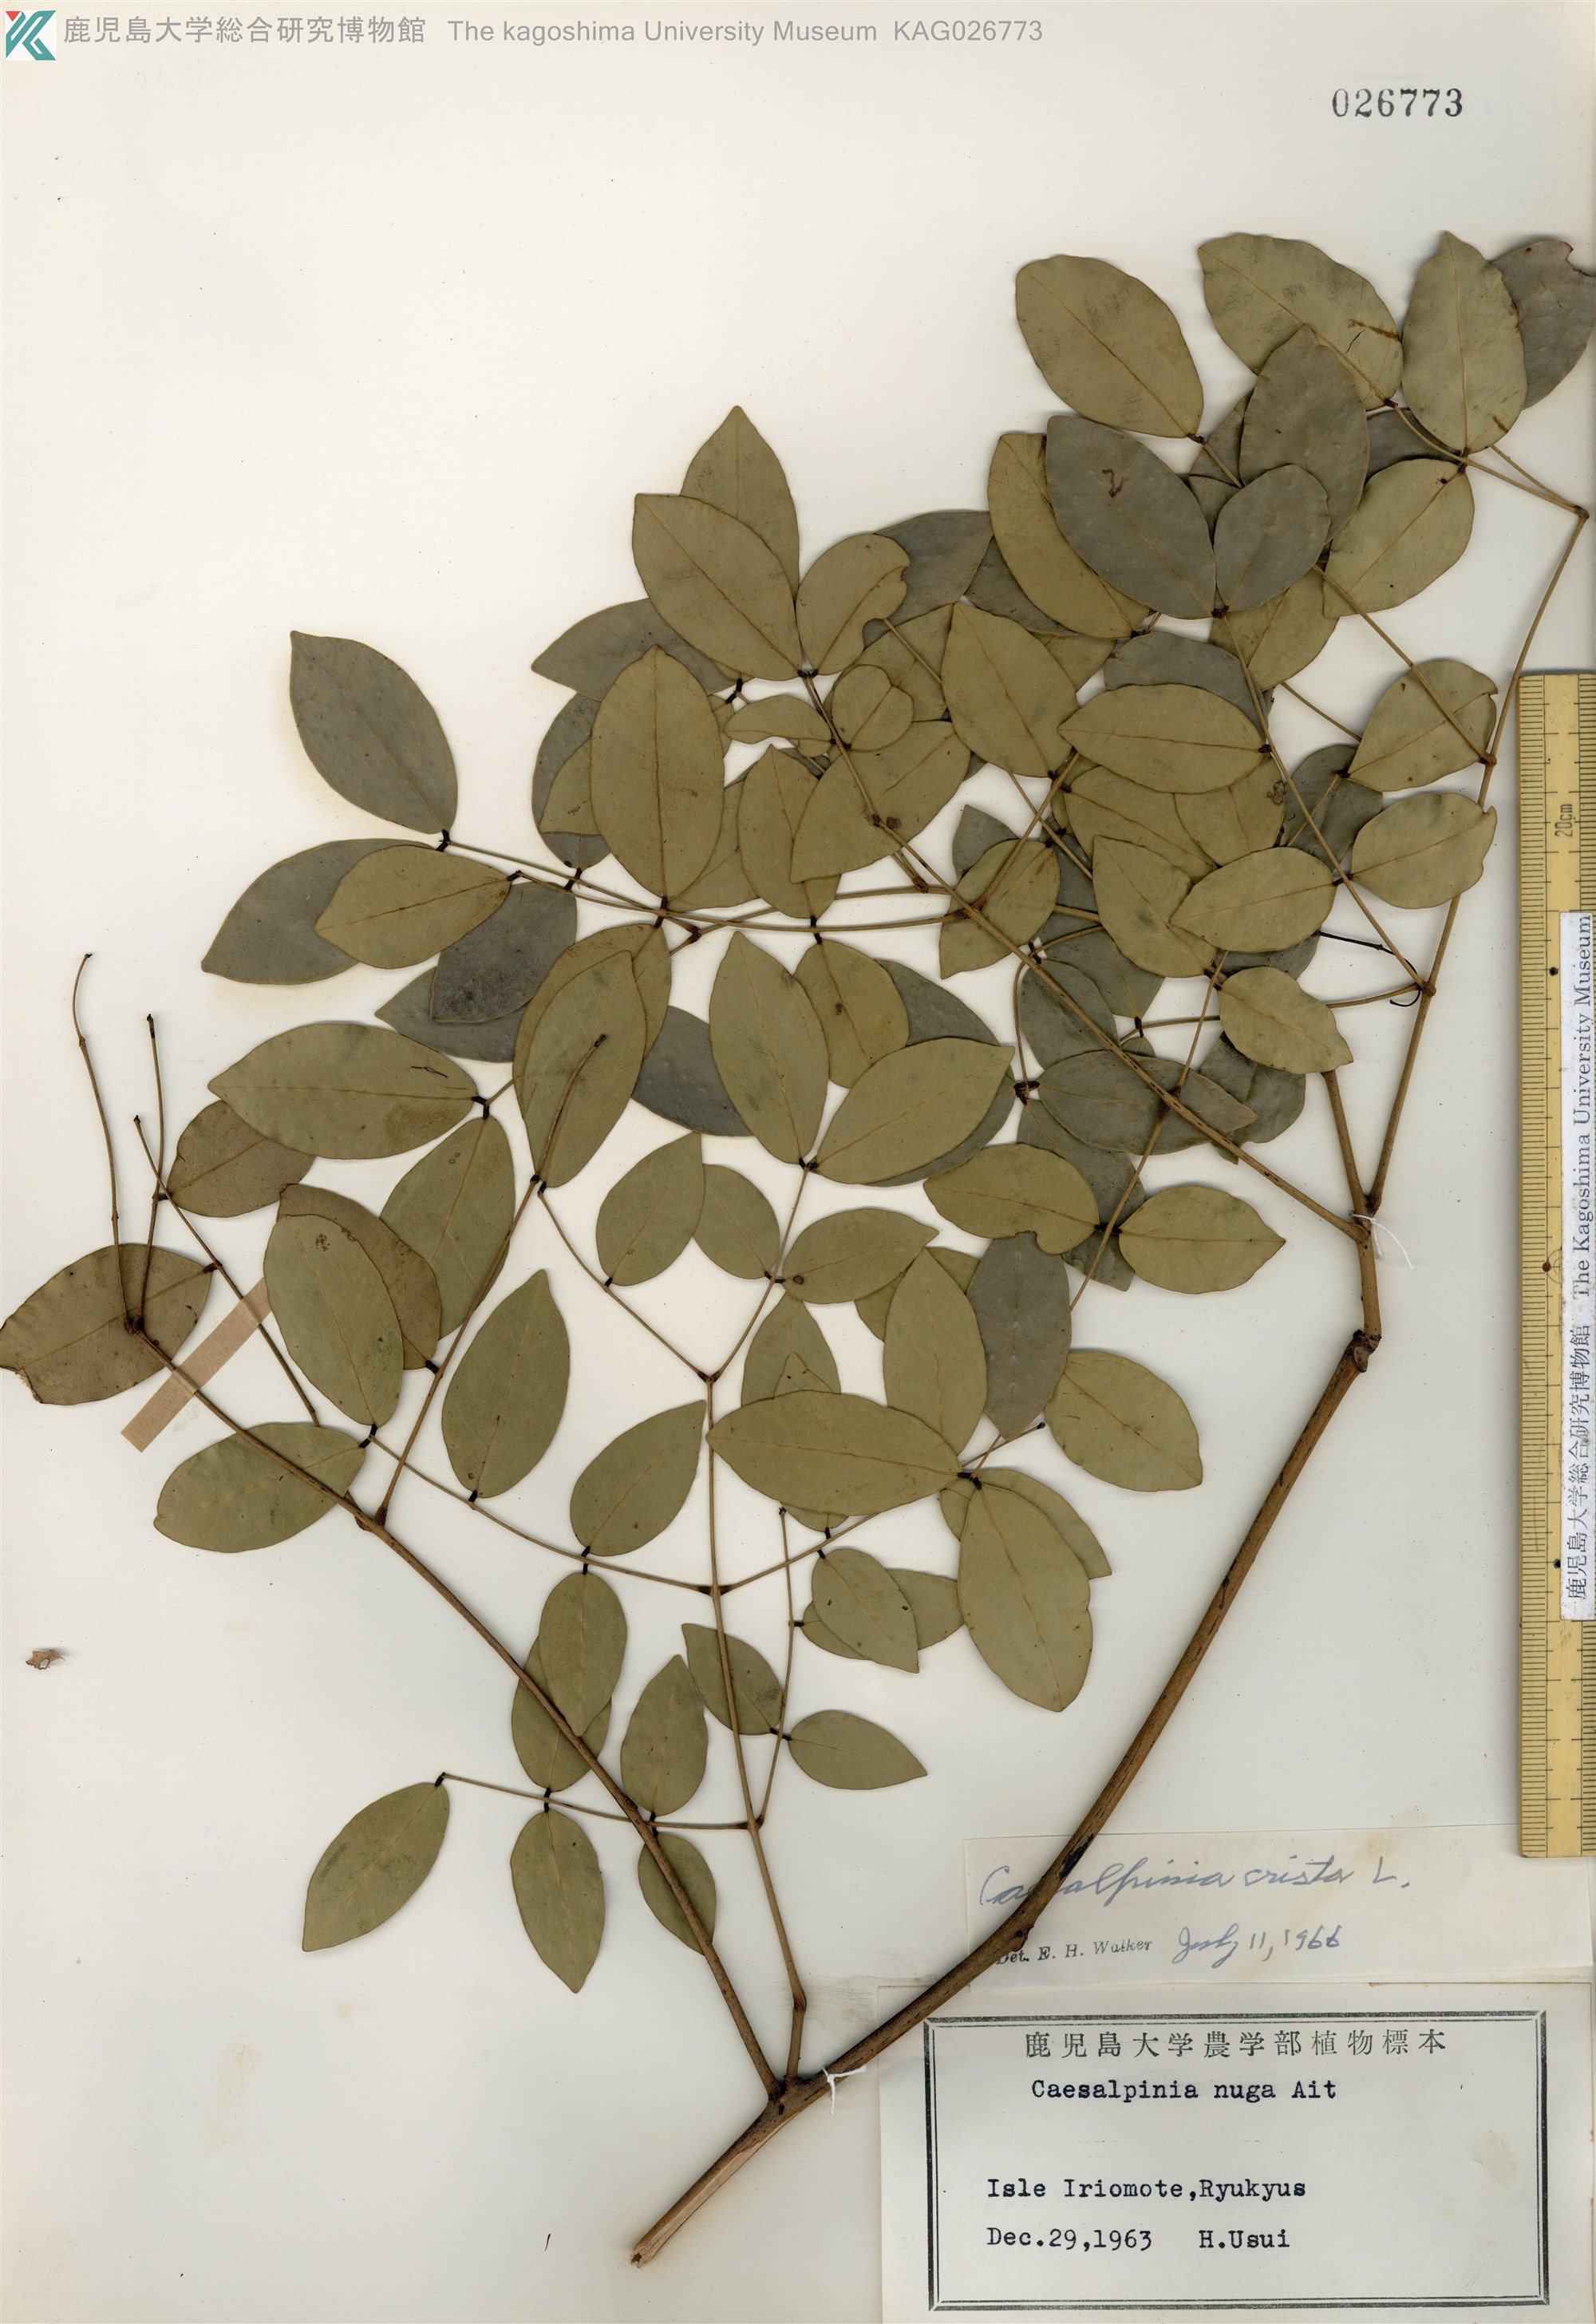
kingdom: Plantae
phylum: Tracheophyta
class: Magnoliopsida
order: Fabales
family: Fabaceae
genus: Caesalpinia
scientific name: Caesalpinia Ticanto crista
